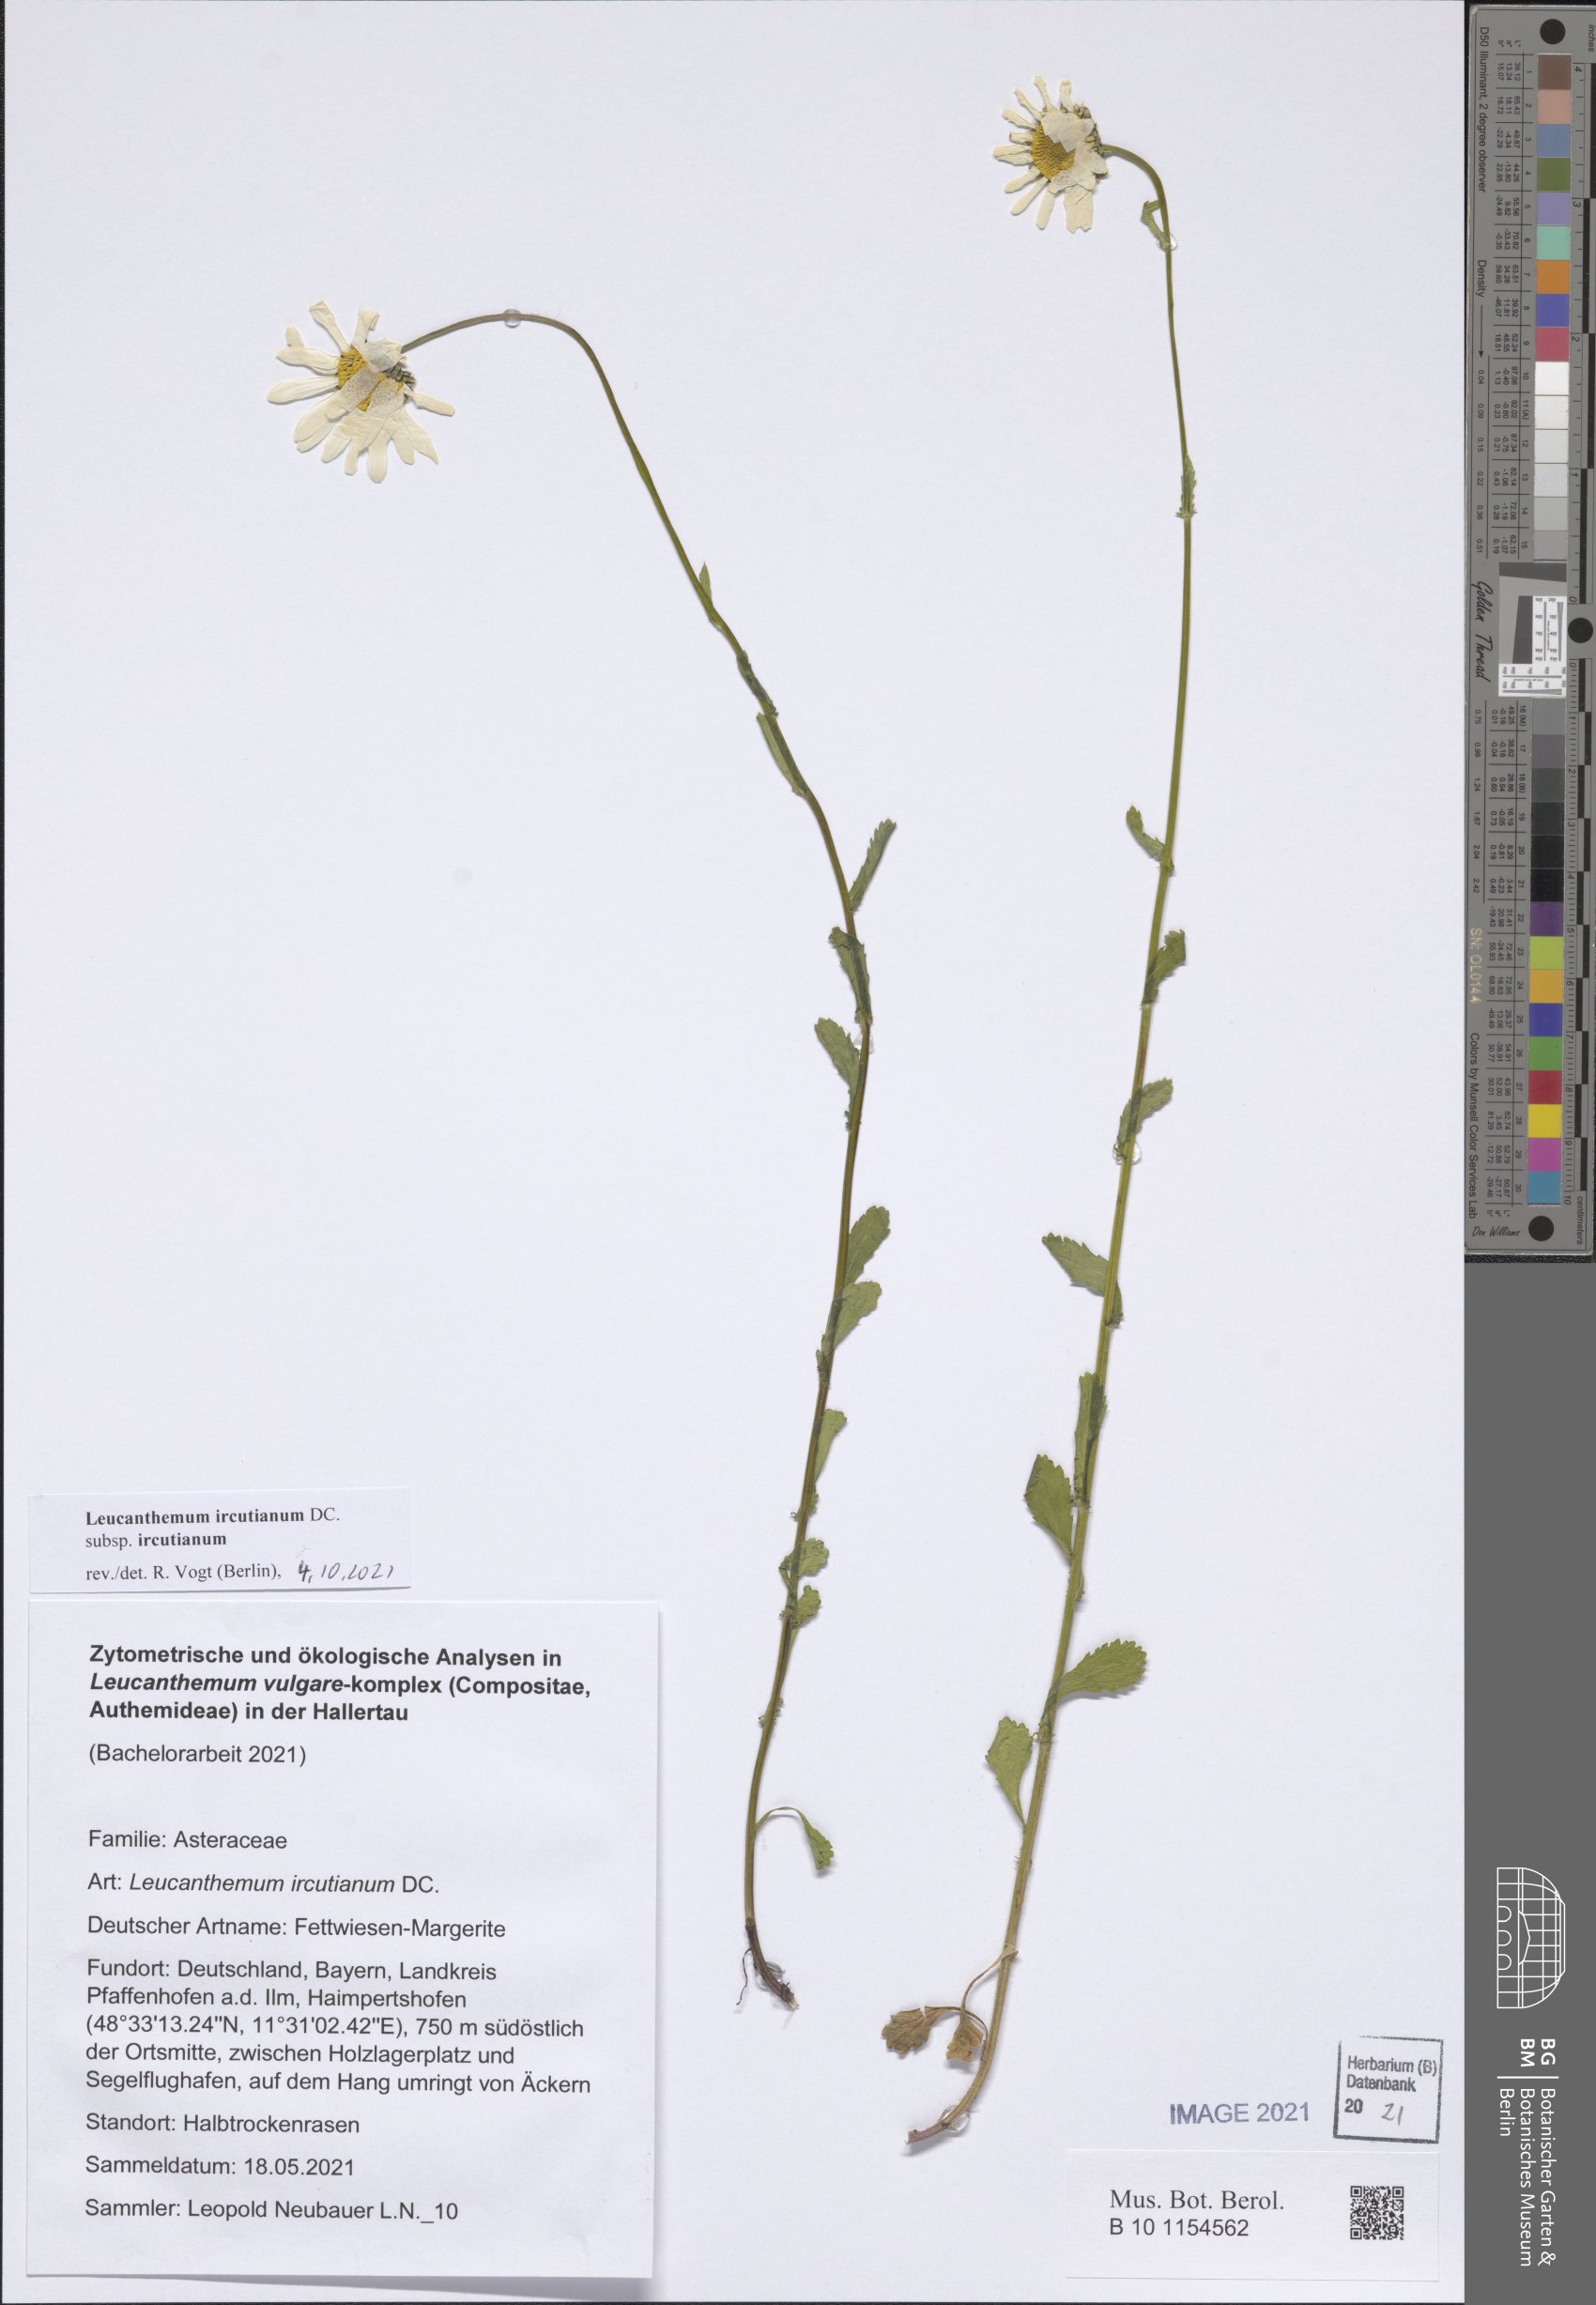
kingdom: Plantae
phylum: Tracheophyta
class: Magnoliopsida
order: Asterales
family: Asteraceae
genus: Leucanthemum
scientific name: Leucanthemum ircutianum
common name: Daisy
